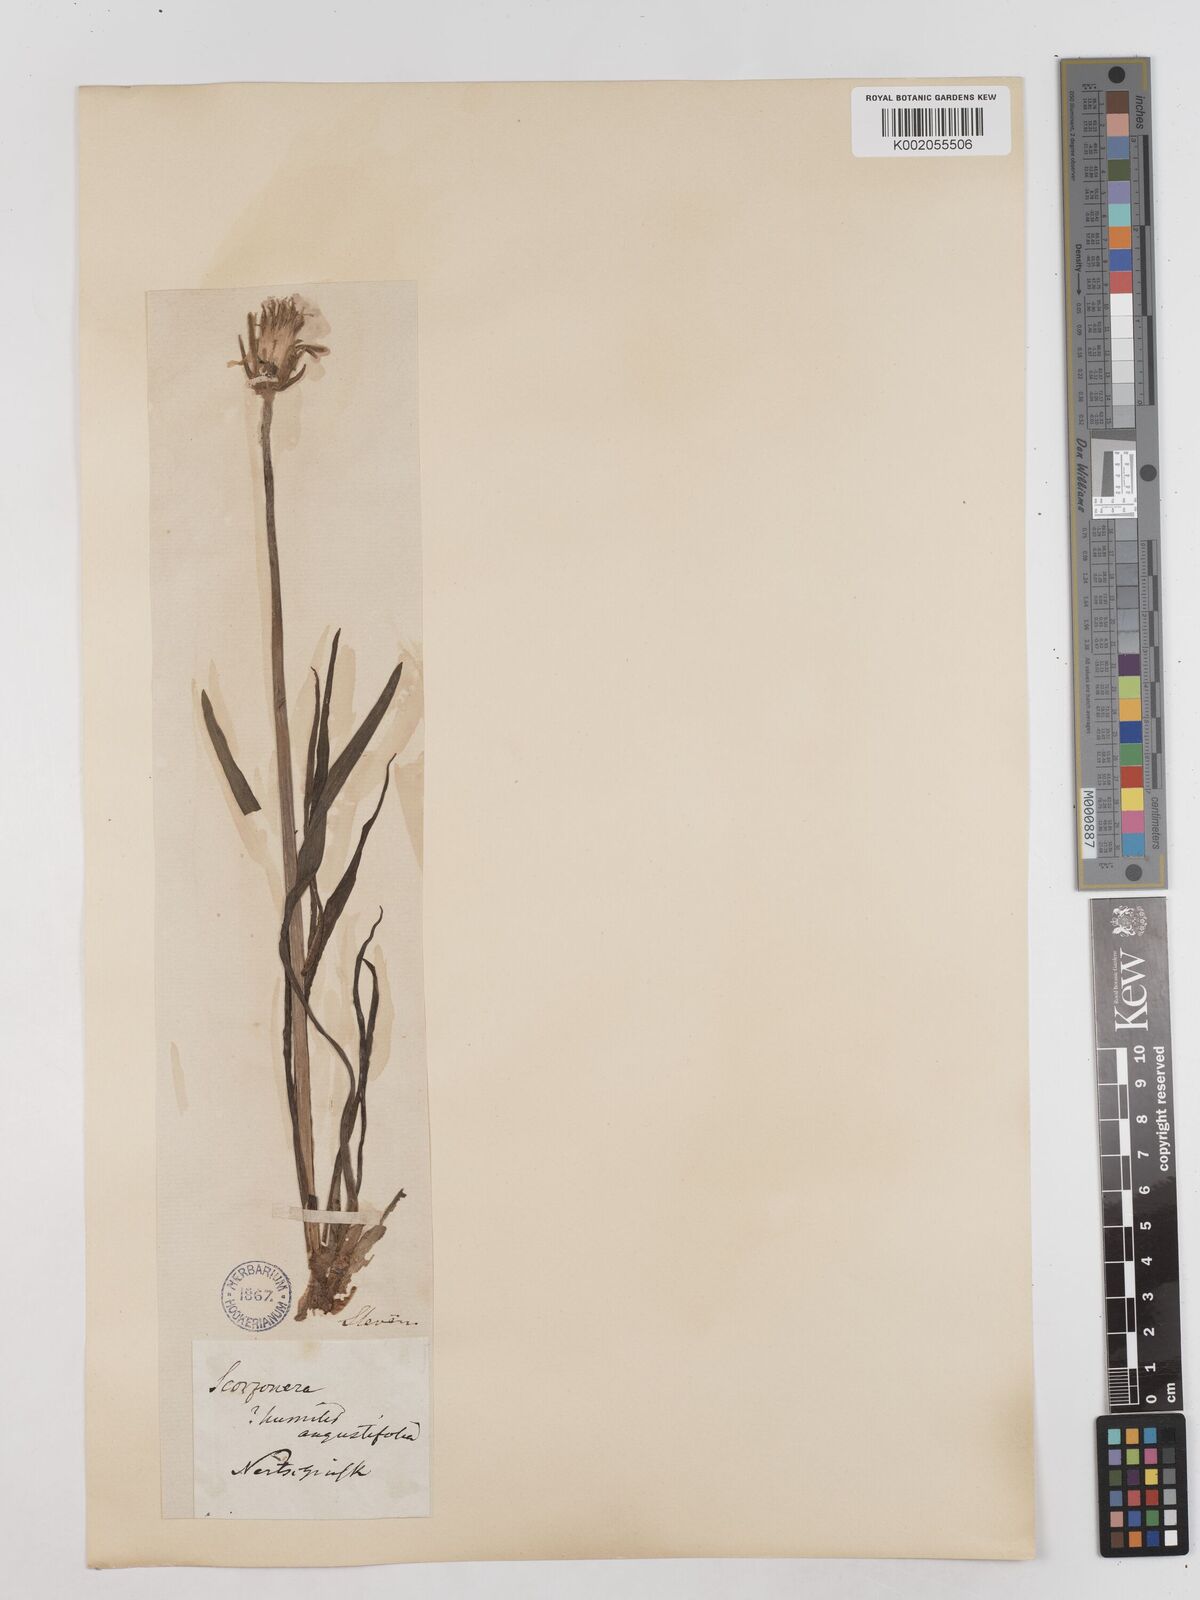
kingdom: Plantae
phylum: Tracheophyta
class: Magnoliopsida
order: Asterales
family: Asteraceae
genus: Takhtajaniantha
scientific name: Takhtajaniantha austriaca
